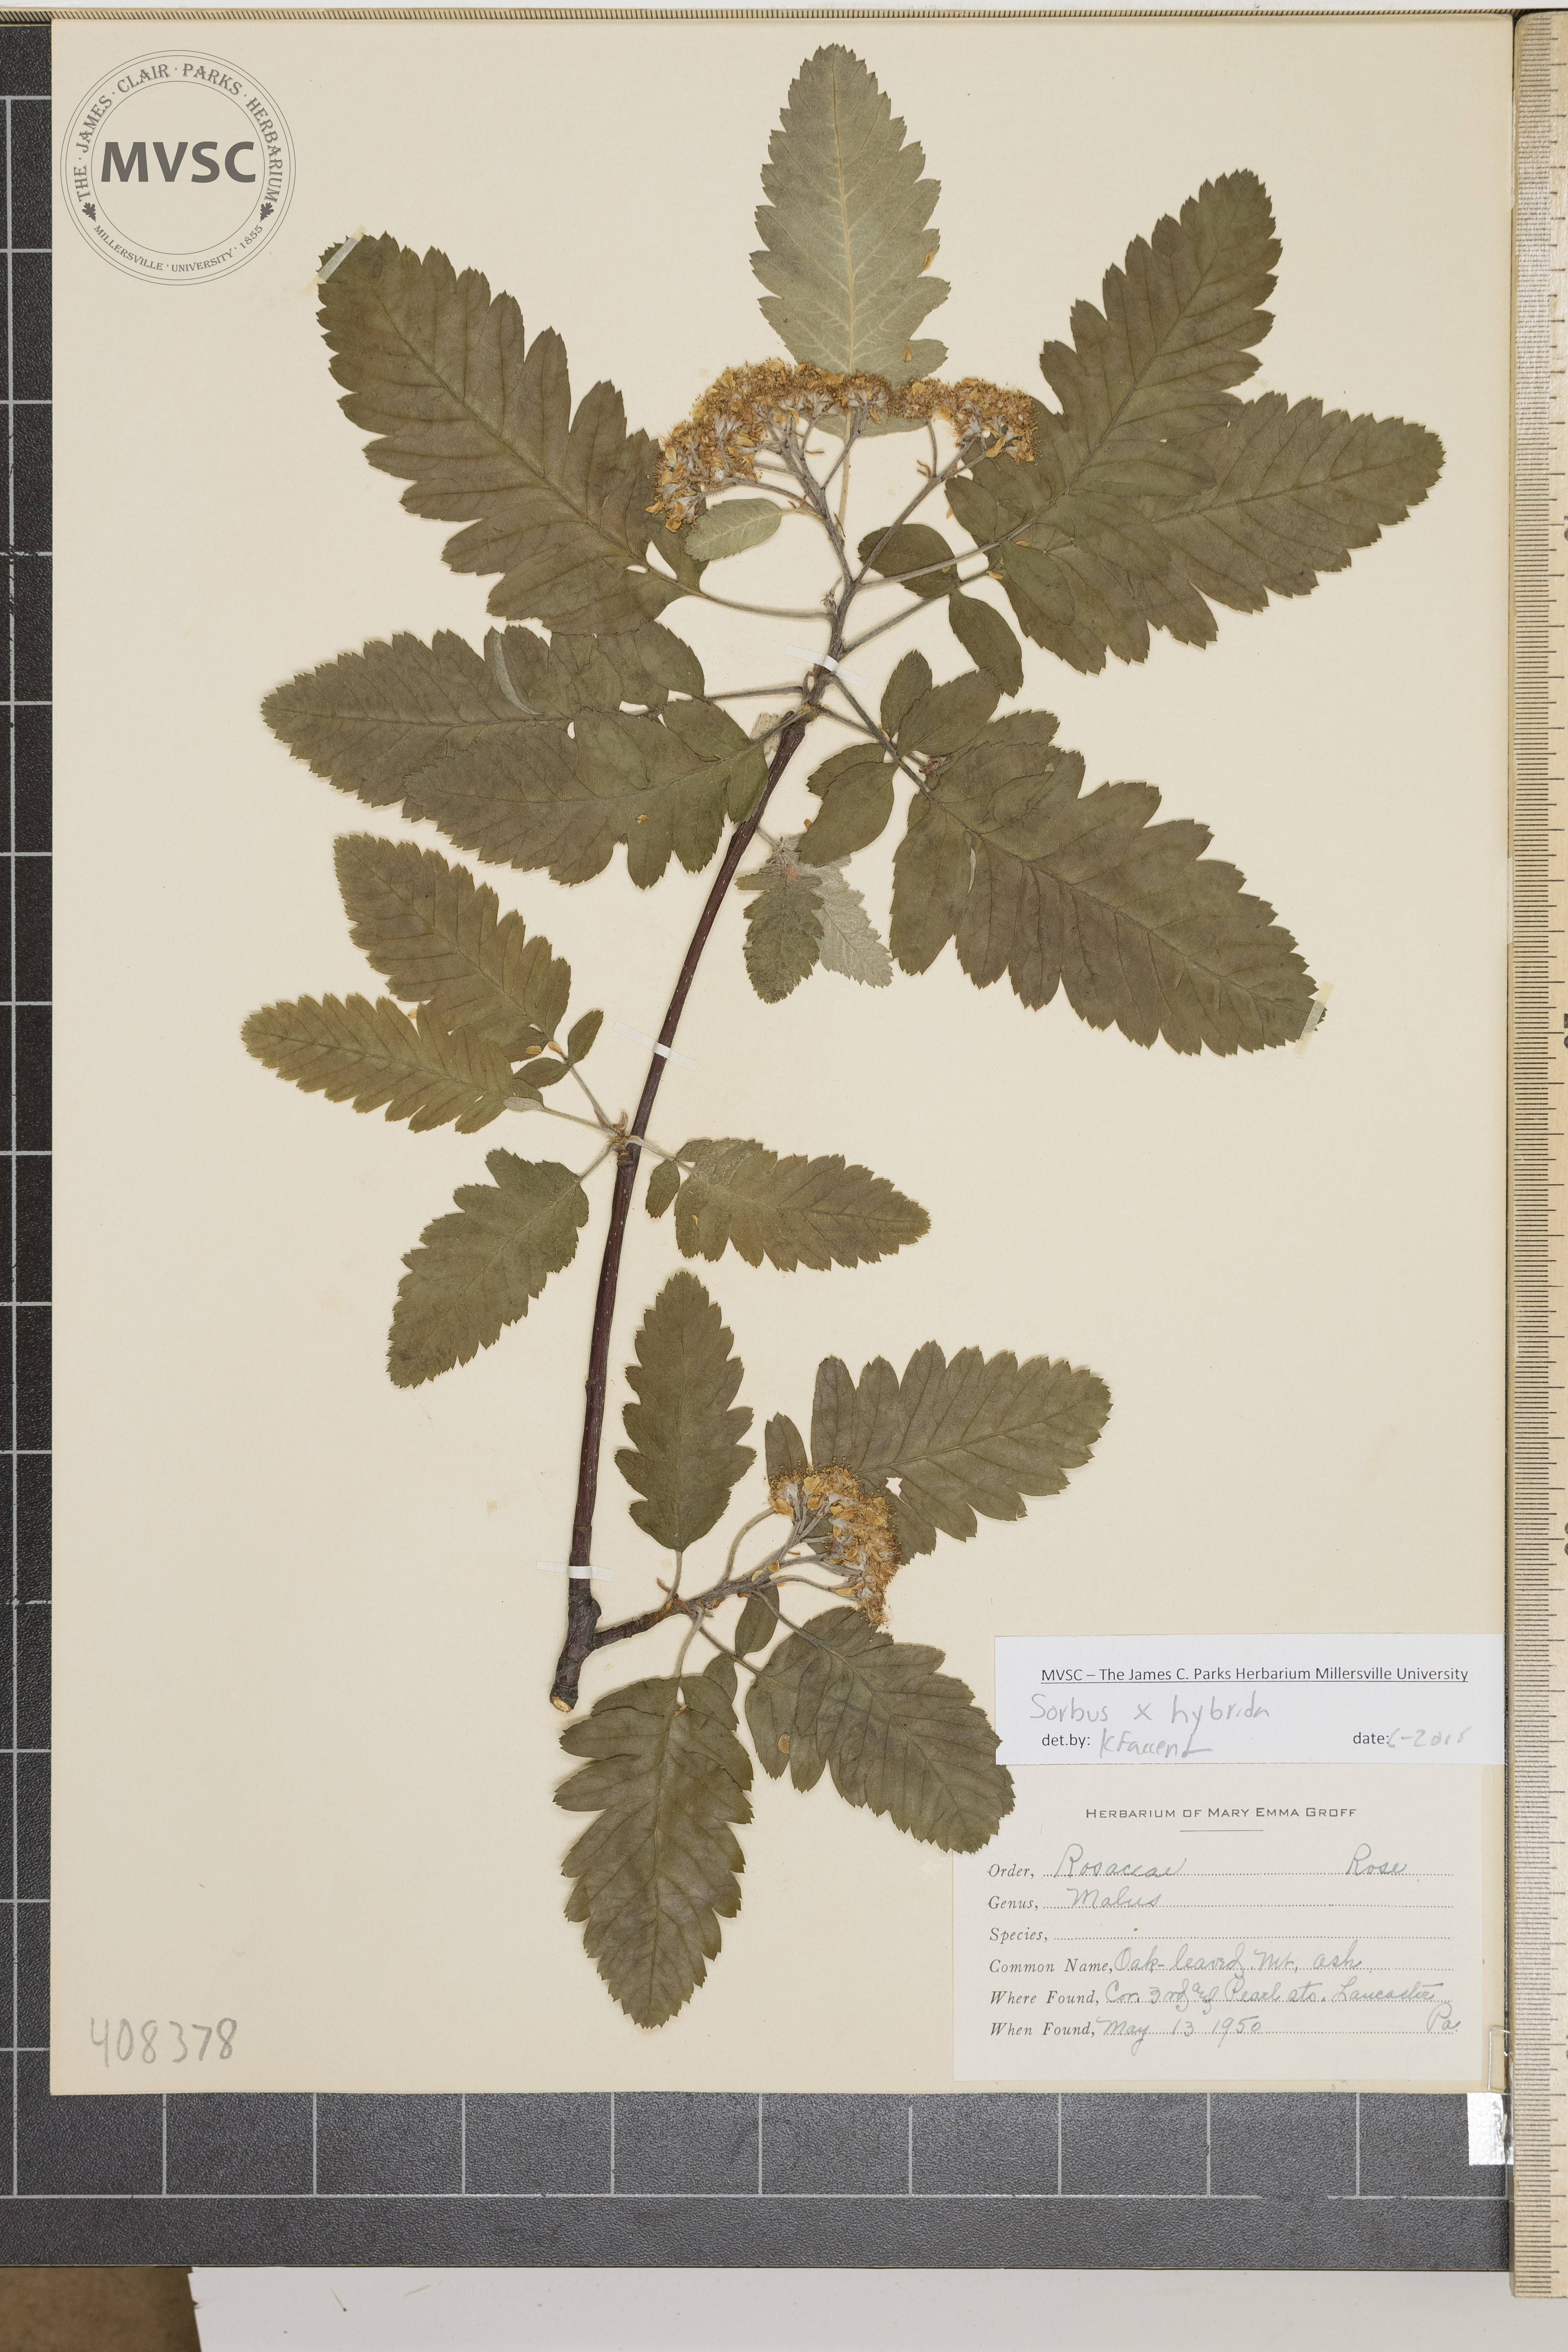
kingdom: Plantae
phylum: Tracheophyta
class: Magnoliopsida
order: Rosales
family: Rosaceae
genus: Hedlundia
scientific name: Hedlundia
